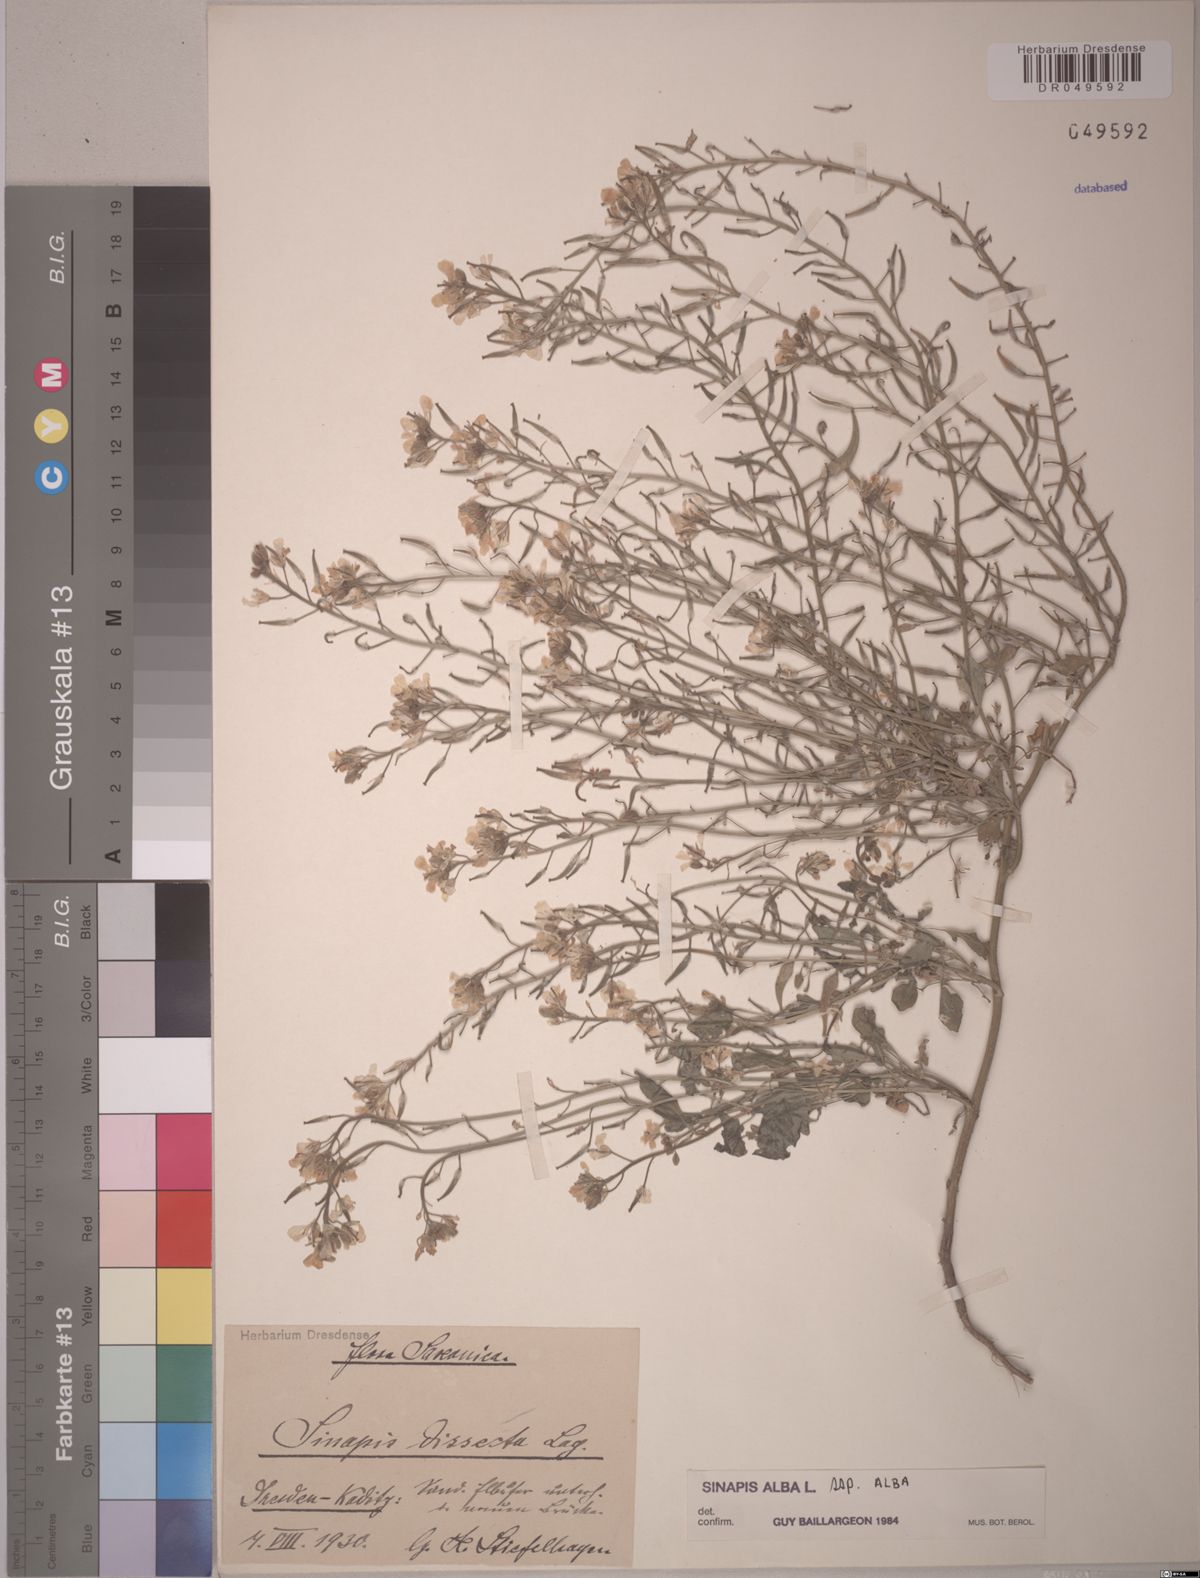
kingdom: Plantae
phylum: Tracheophyta
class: Magnoliopsida
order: Brassicales
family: Brassicaceae
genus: Sinapis
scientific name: Sinapis alba
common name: White mustard
